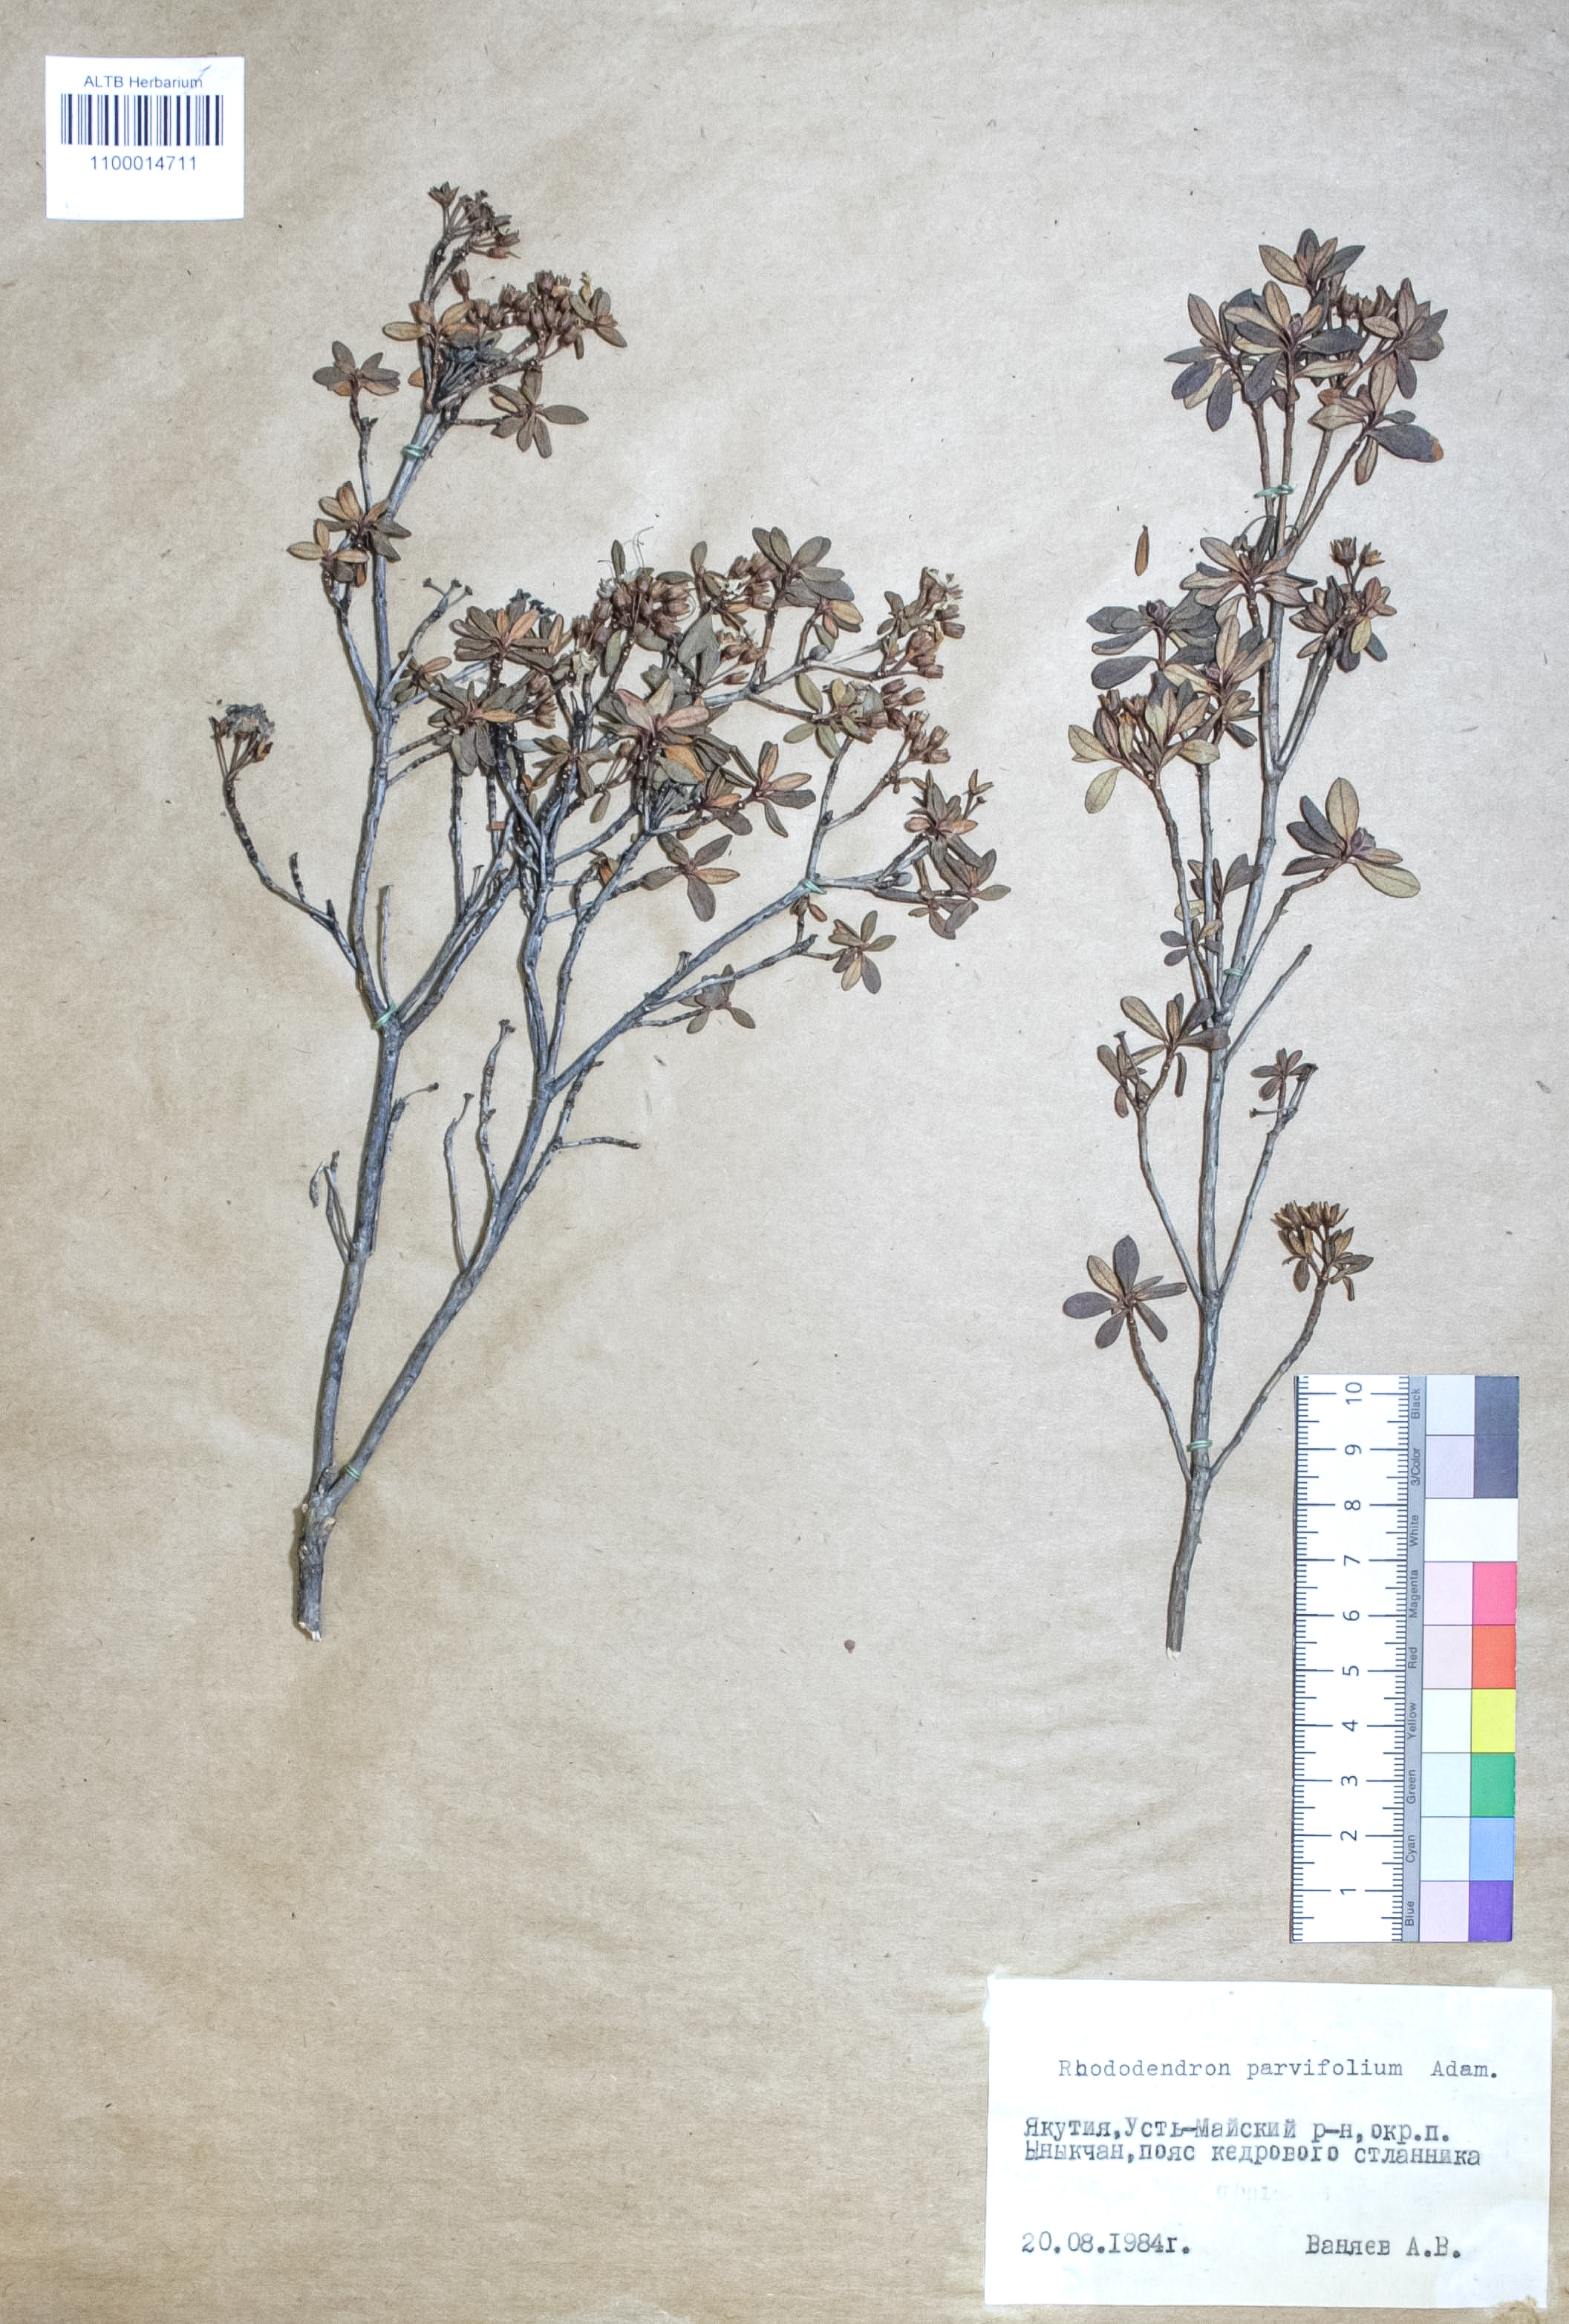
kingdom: Plantae
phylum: Tracheophyta
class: Magnoliopsida
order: Ericales
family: Ericaceae
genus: Rhododendron
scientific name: Rhododendron parvifolium
